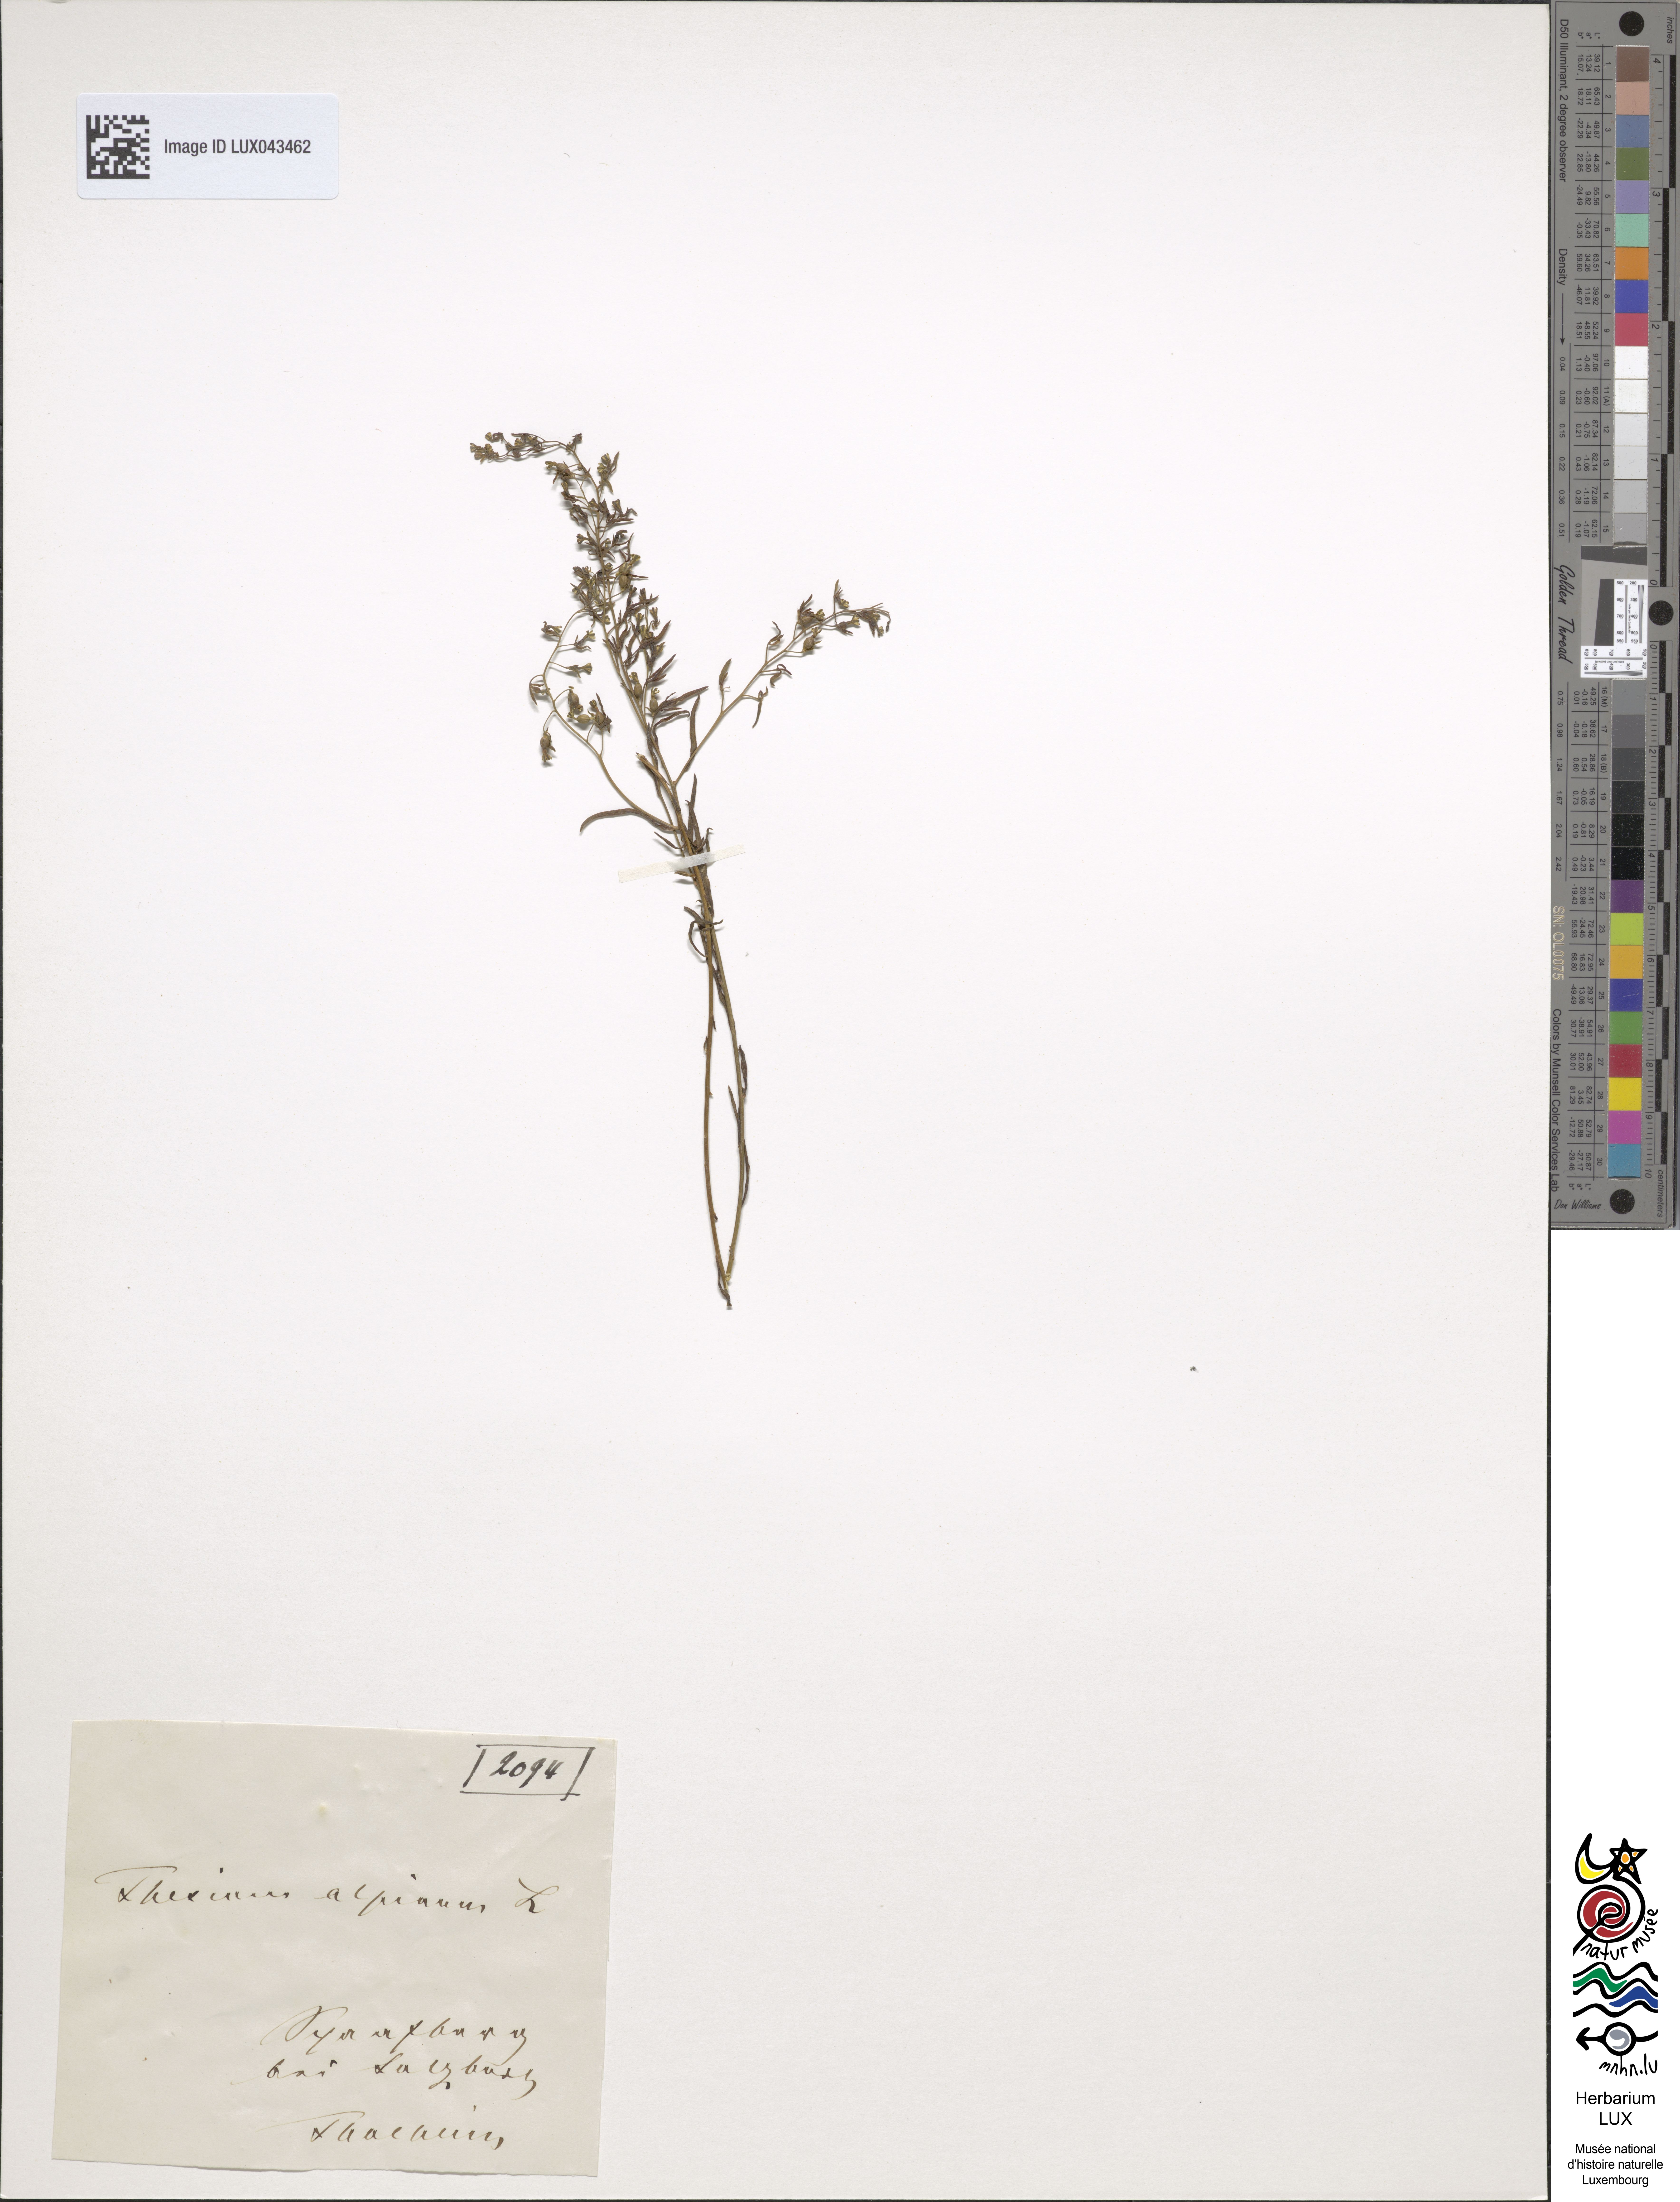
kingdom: Plantae
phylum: Tracheophyta
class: Magnoliopsida
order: Santalales
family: Thesiaceae
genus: Thesium
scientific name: Thesium alpinum
